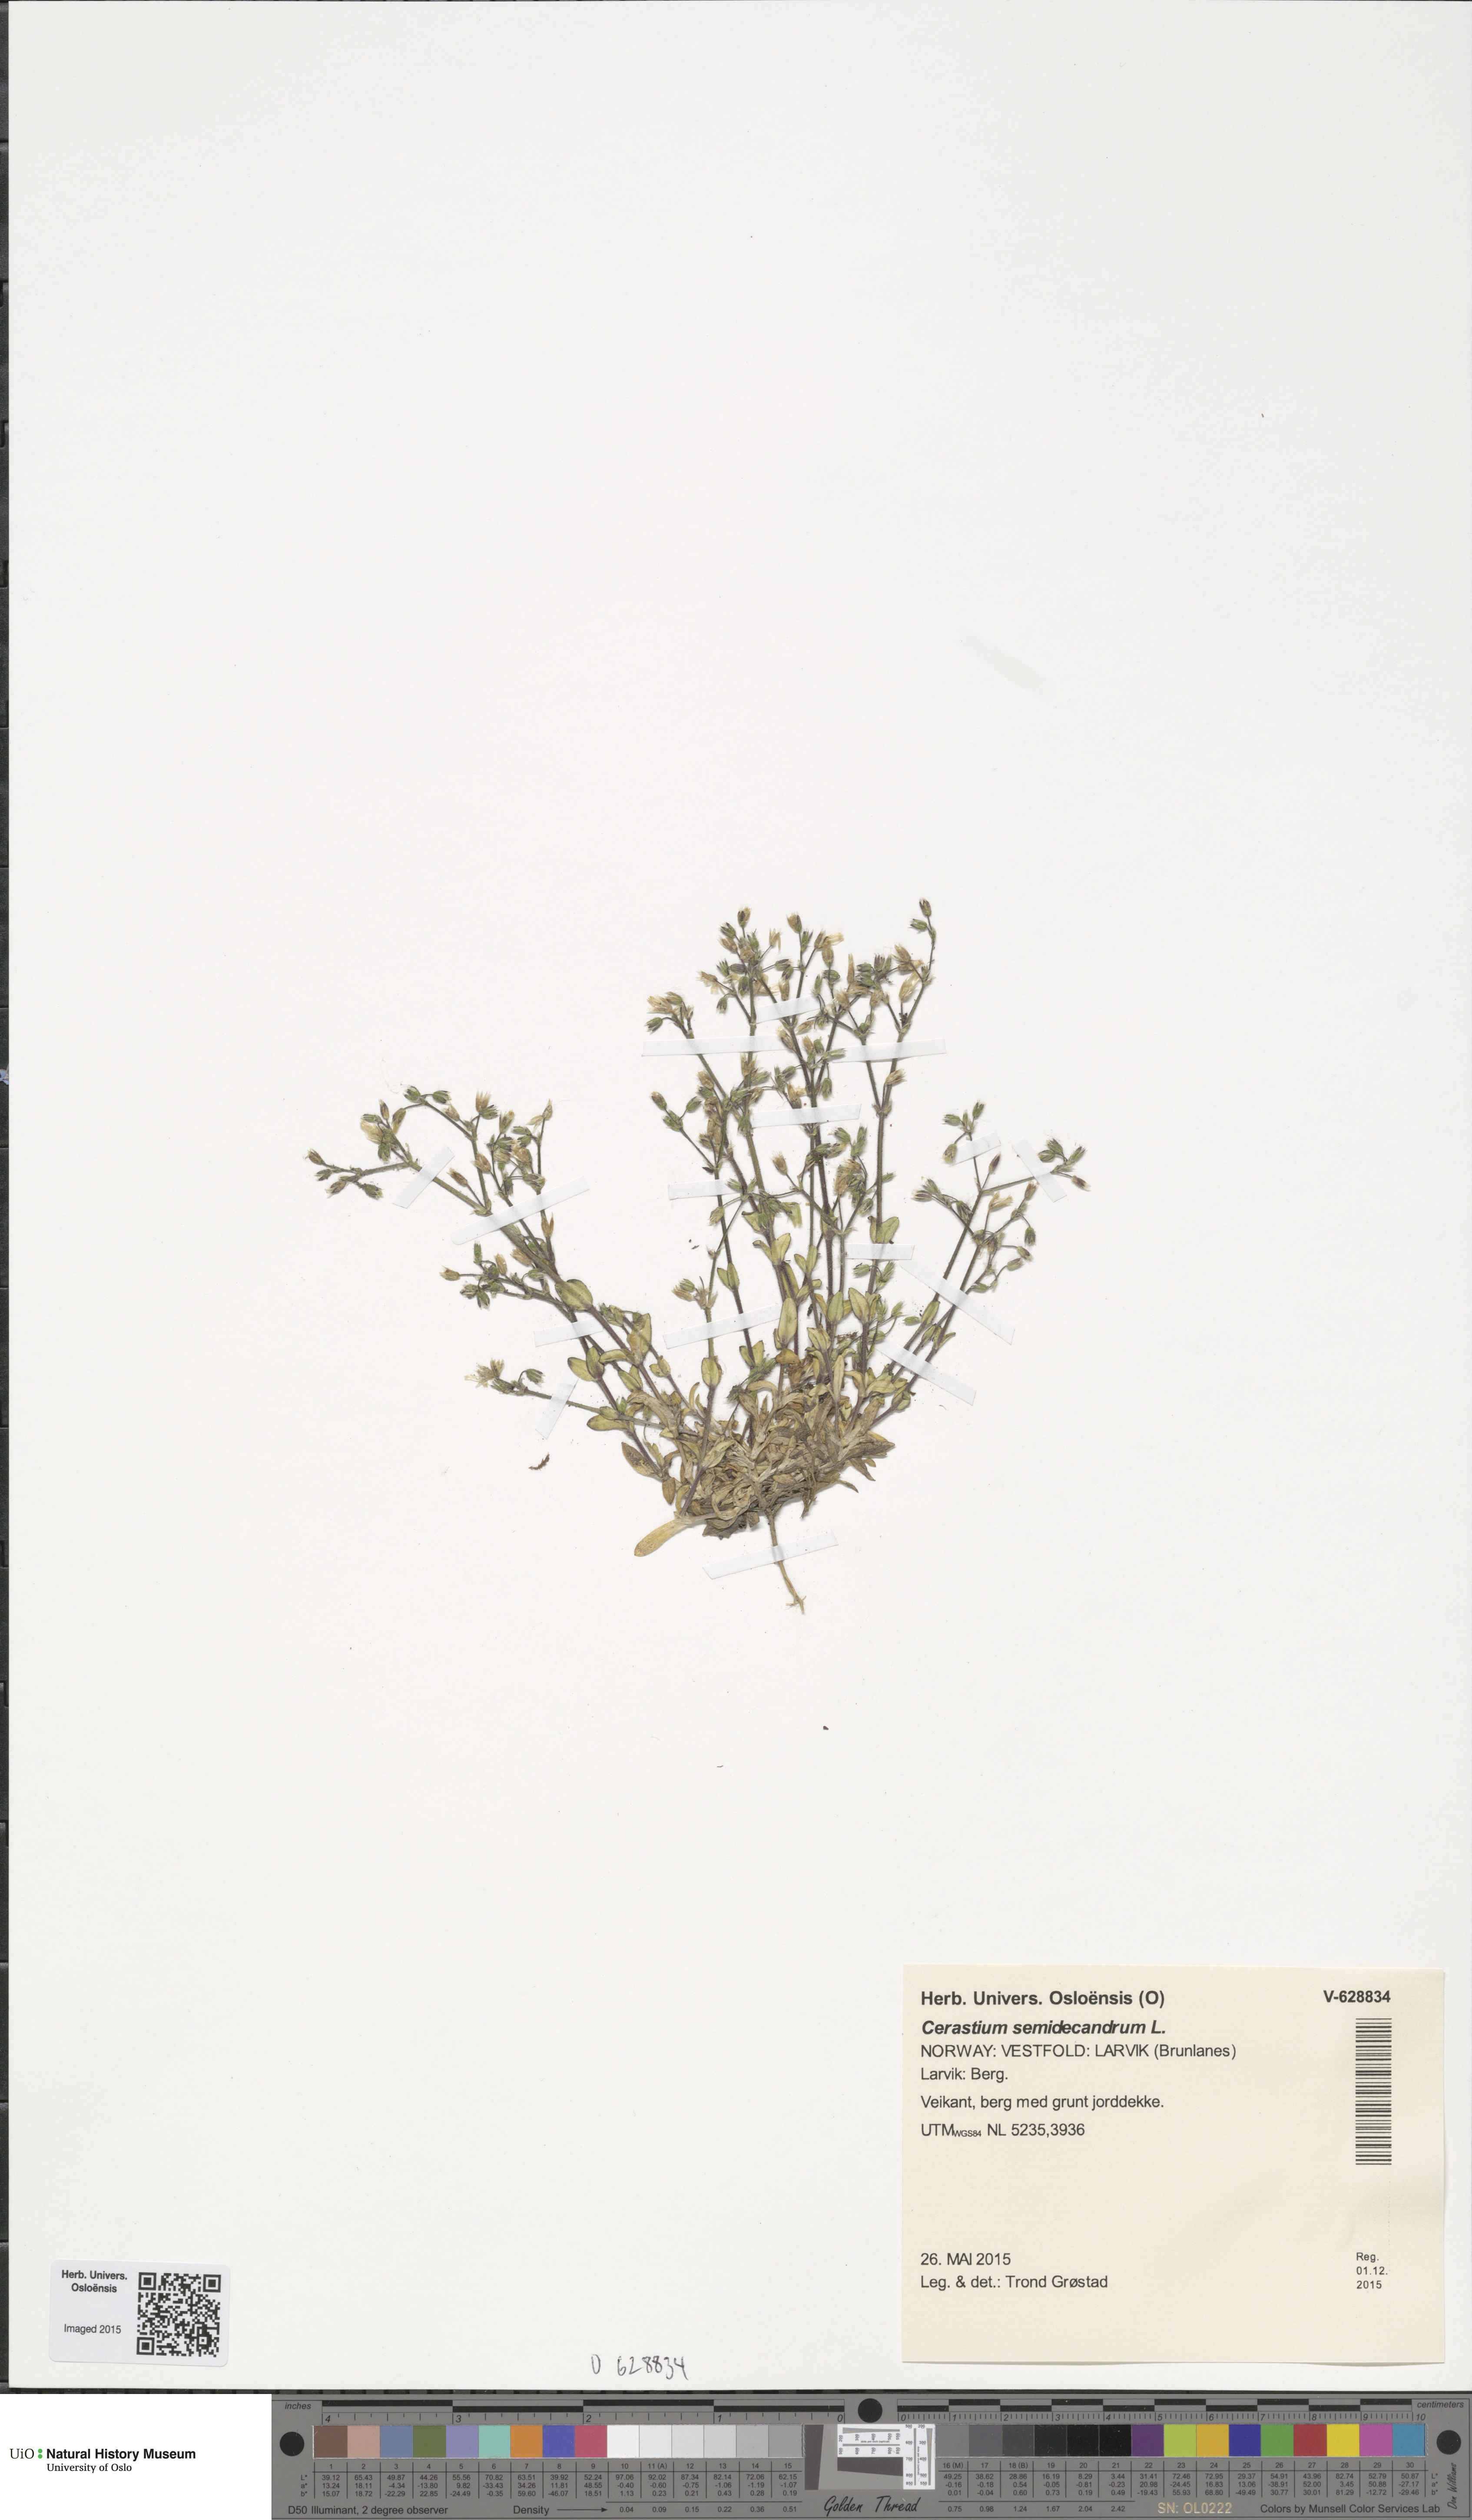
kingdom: Plantae
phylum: Tracheophyta
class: Magnoliopsida
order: Caryophyllales
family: Caryophyllaceae
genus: Cerastium
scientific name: Cerastium semidecandrum
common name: Little mouse-ear
